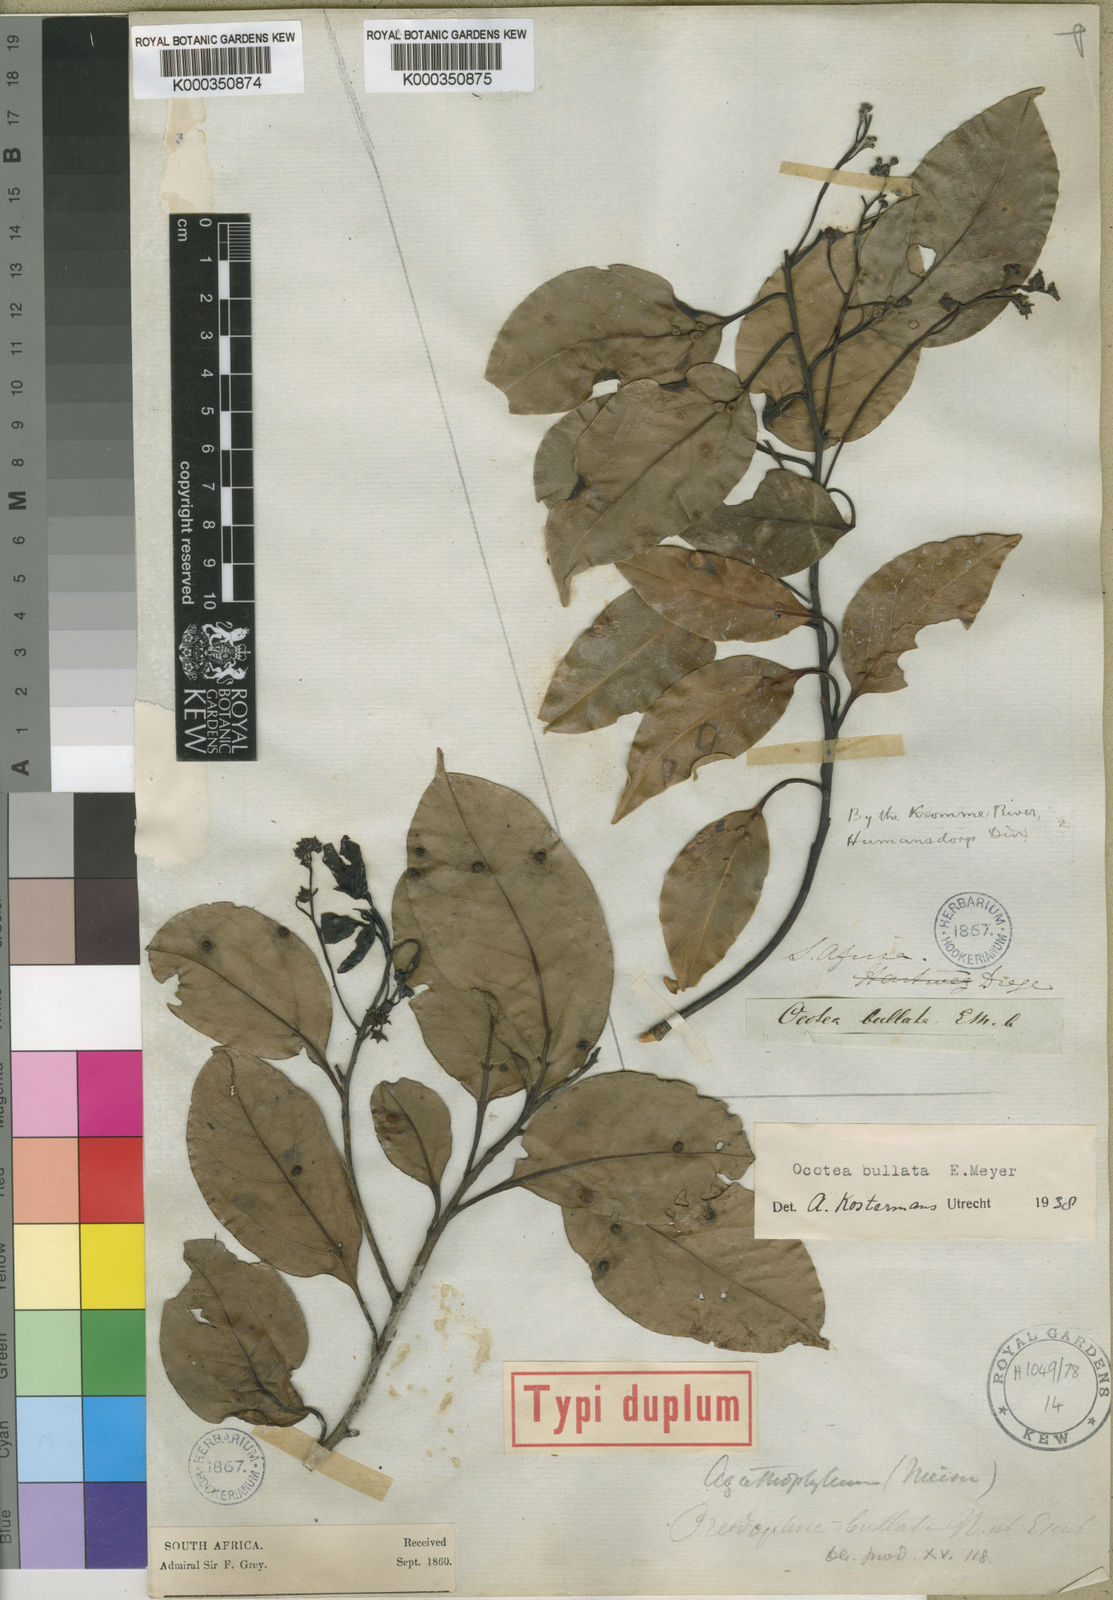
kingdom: Plantae
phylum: Tracheophyta
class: Magnoliopsida
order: Laurales
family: Lauraceae
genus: Ocotea
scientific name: Ocotea
